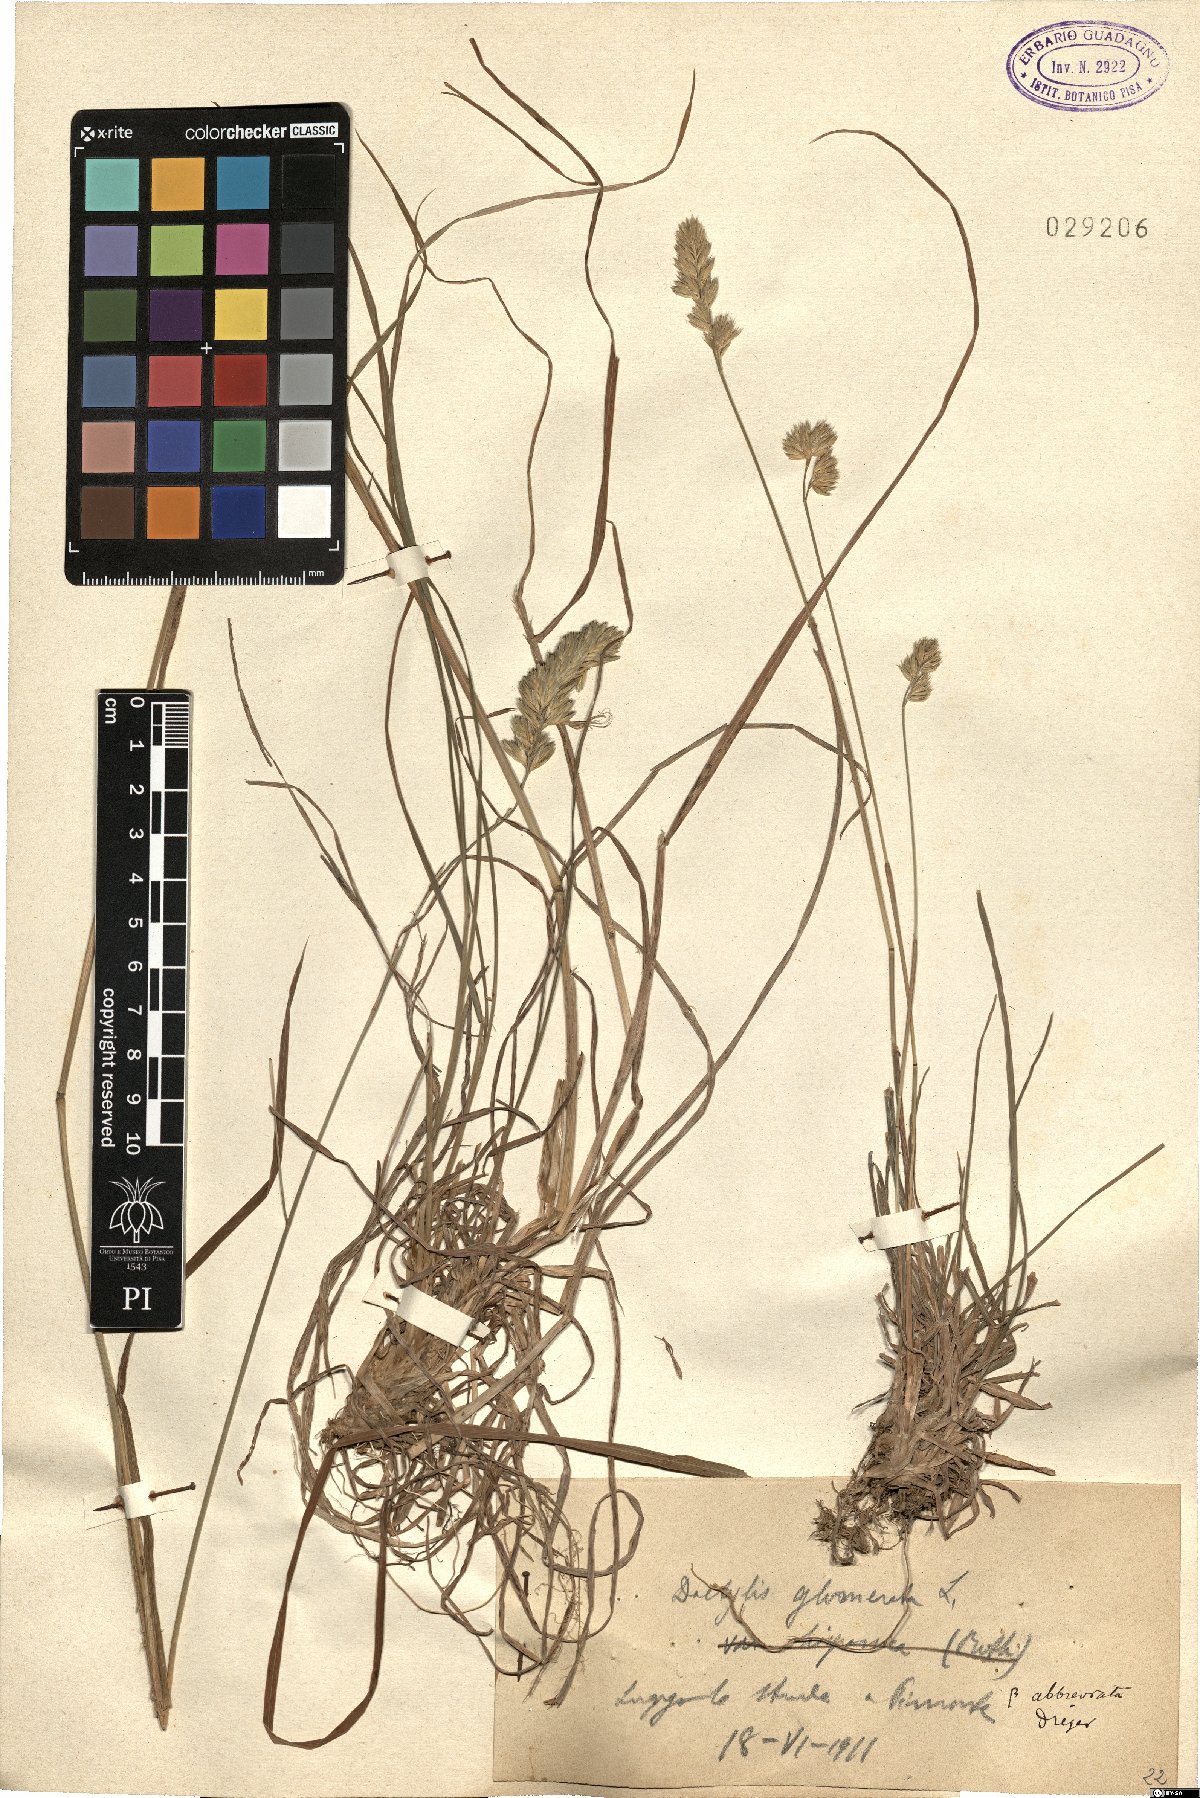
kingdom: Plantae
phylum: Tracheophyta
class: Liliopsida
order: Poales
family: Poaceae
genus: Dactylis
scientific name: Dactylis glomerata
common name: Orchardgrass
